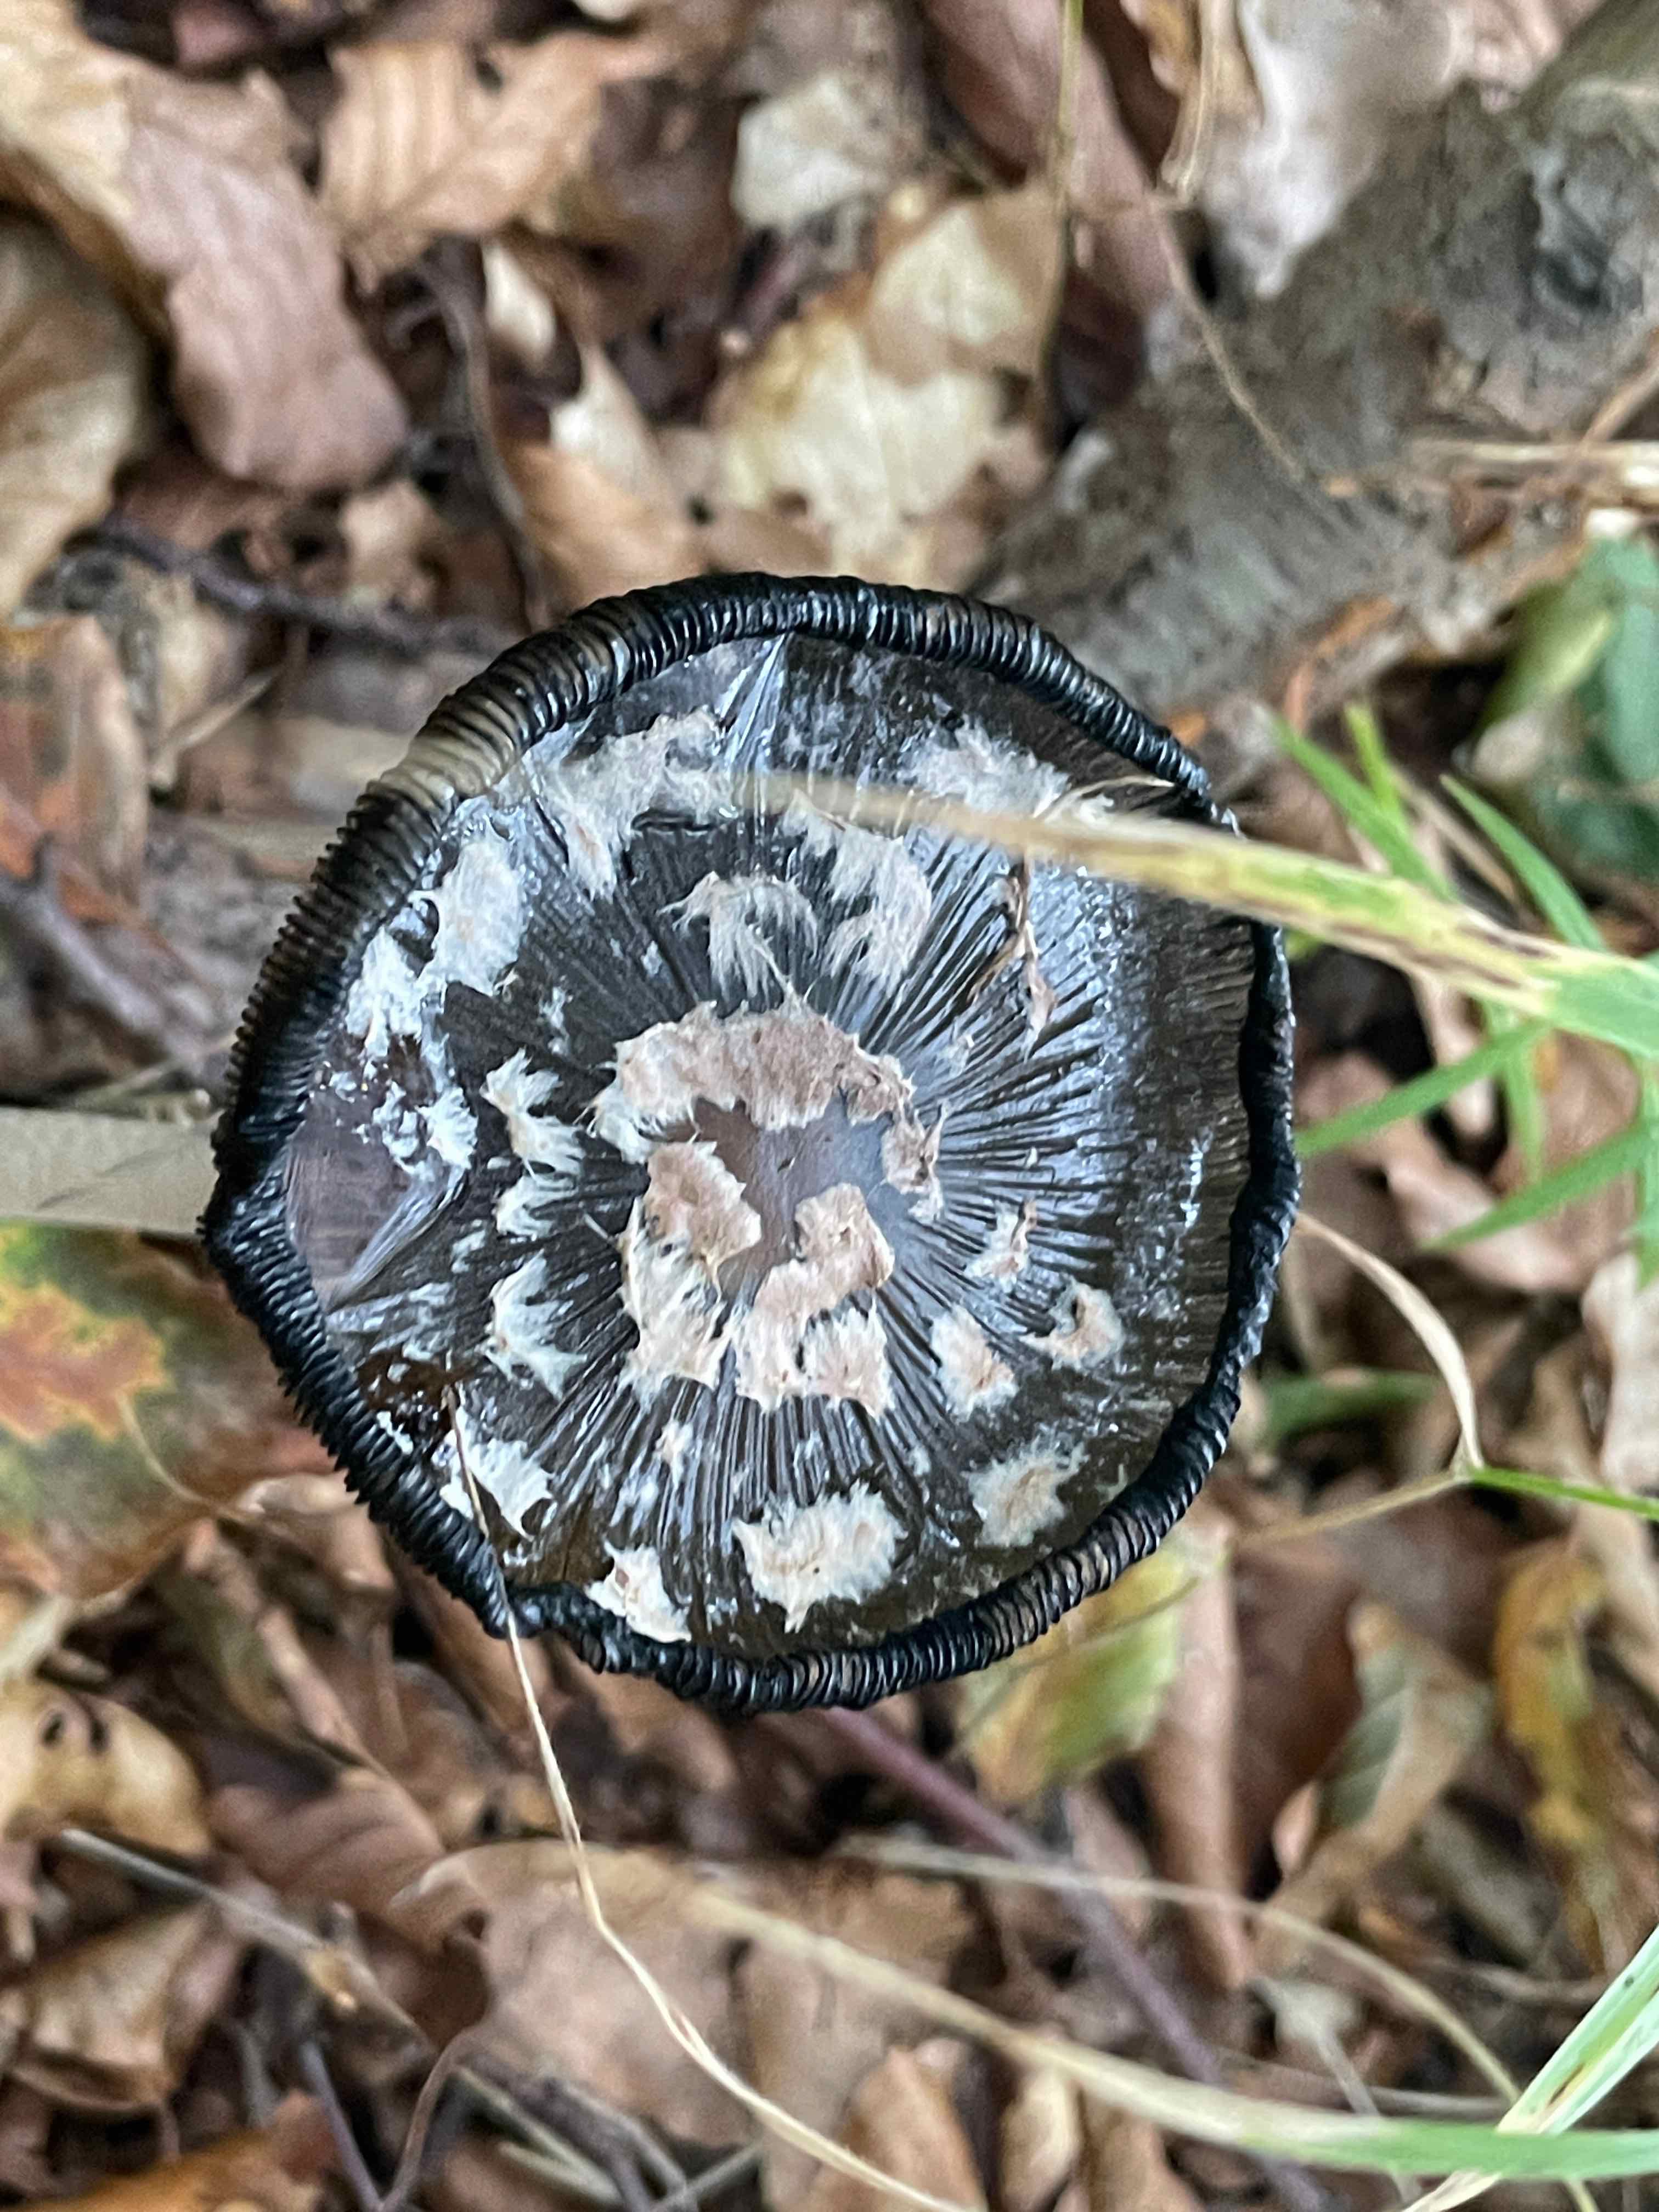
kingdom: Fungi
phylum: Basidiomycota
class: Agaricomycetes
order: Agaricales
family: Psathyrellaceae
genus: Coprinopsis
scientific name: Coprinopsis picacea
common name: skade-blækhat
